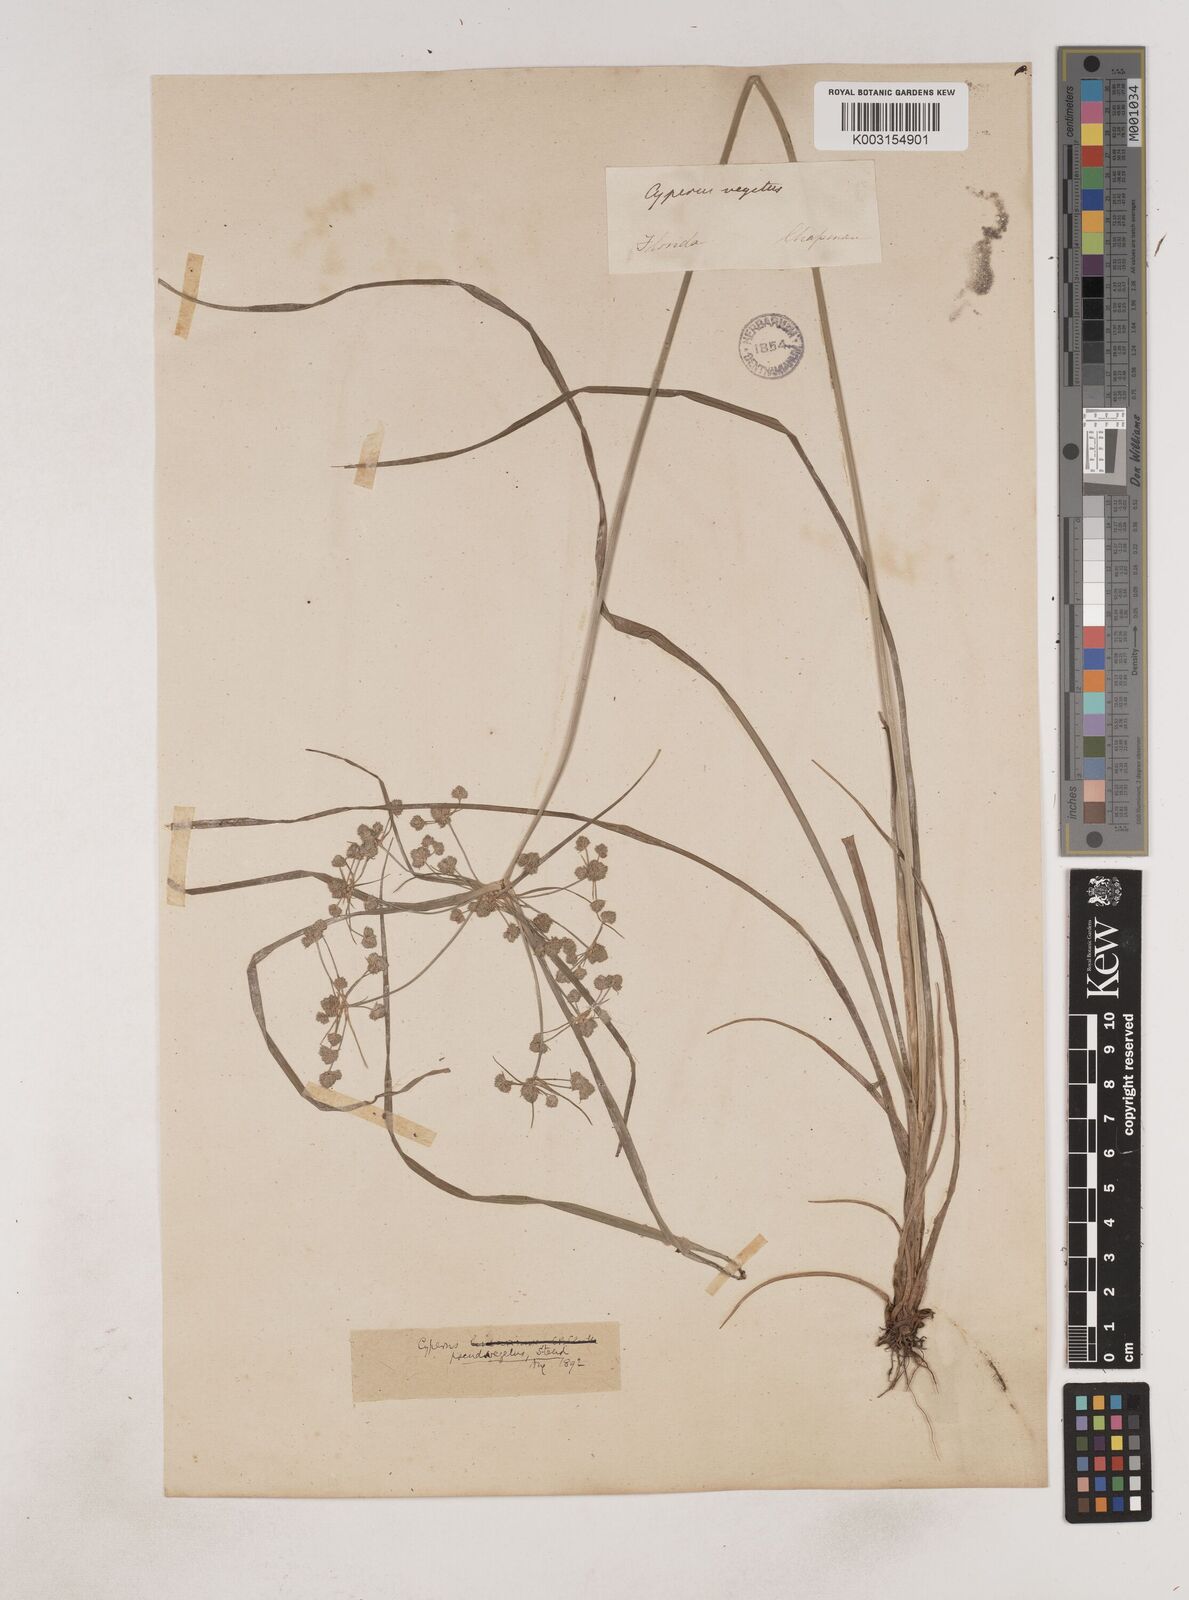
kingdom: Plantae
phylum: Tracheophyta
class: Liliopsida
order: Poales
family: Cyperaceae
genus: Cyperus
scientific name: Cyperus pseudovegetus
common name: Marsh flat sedge
